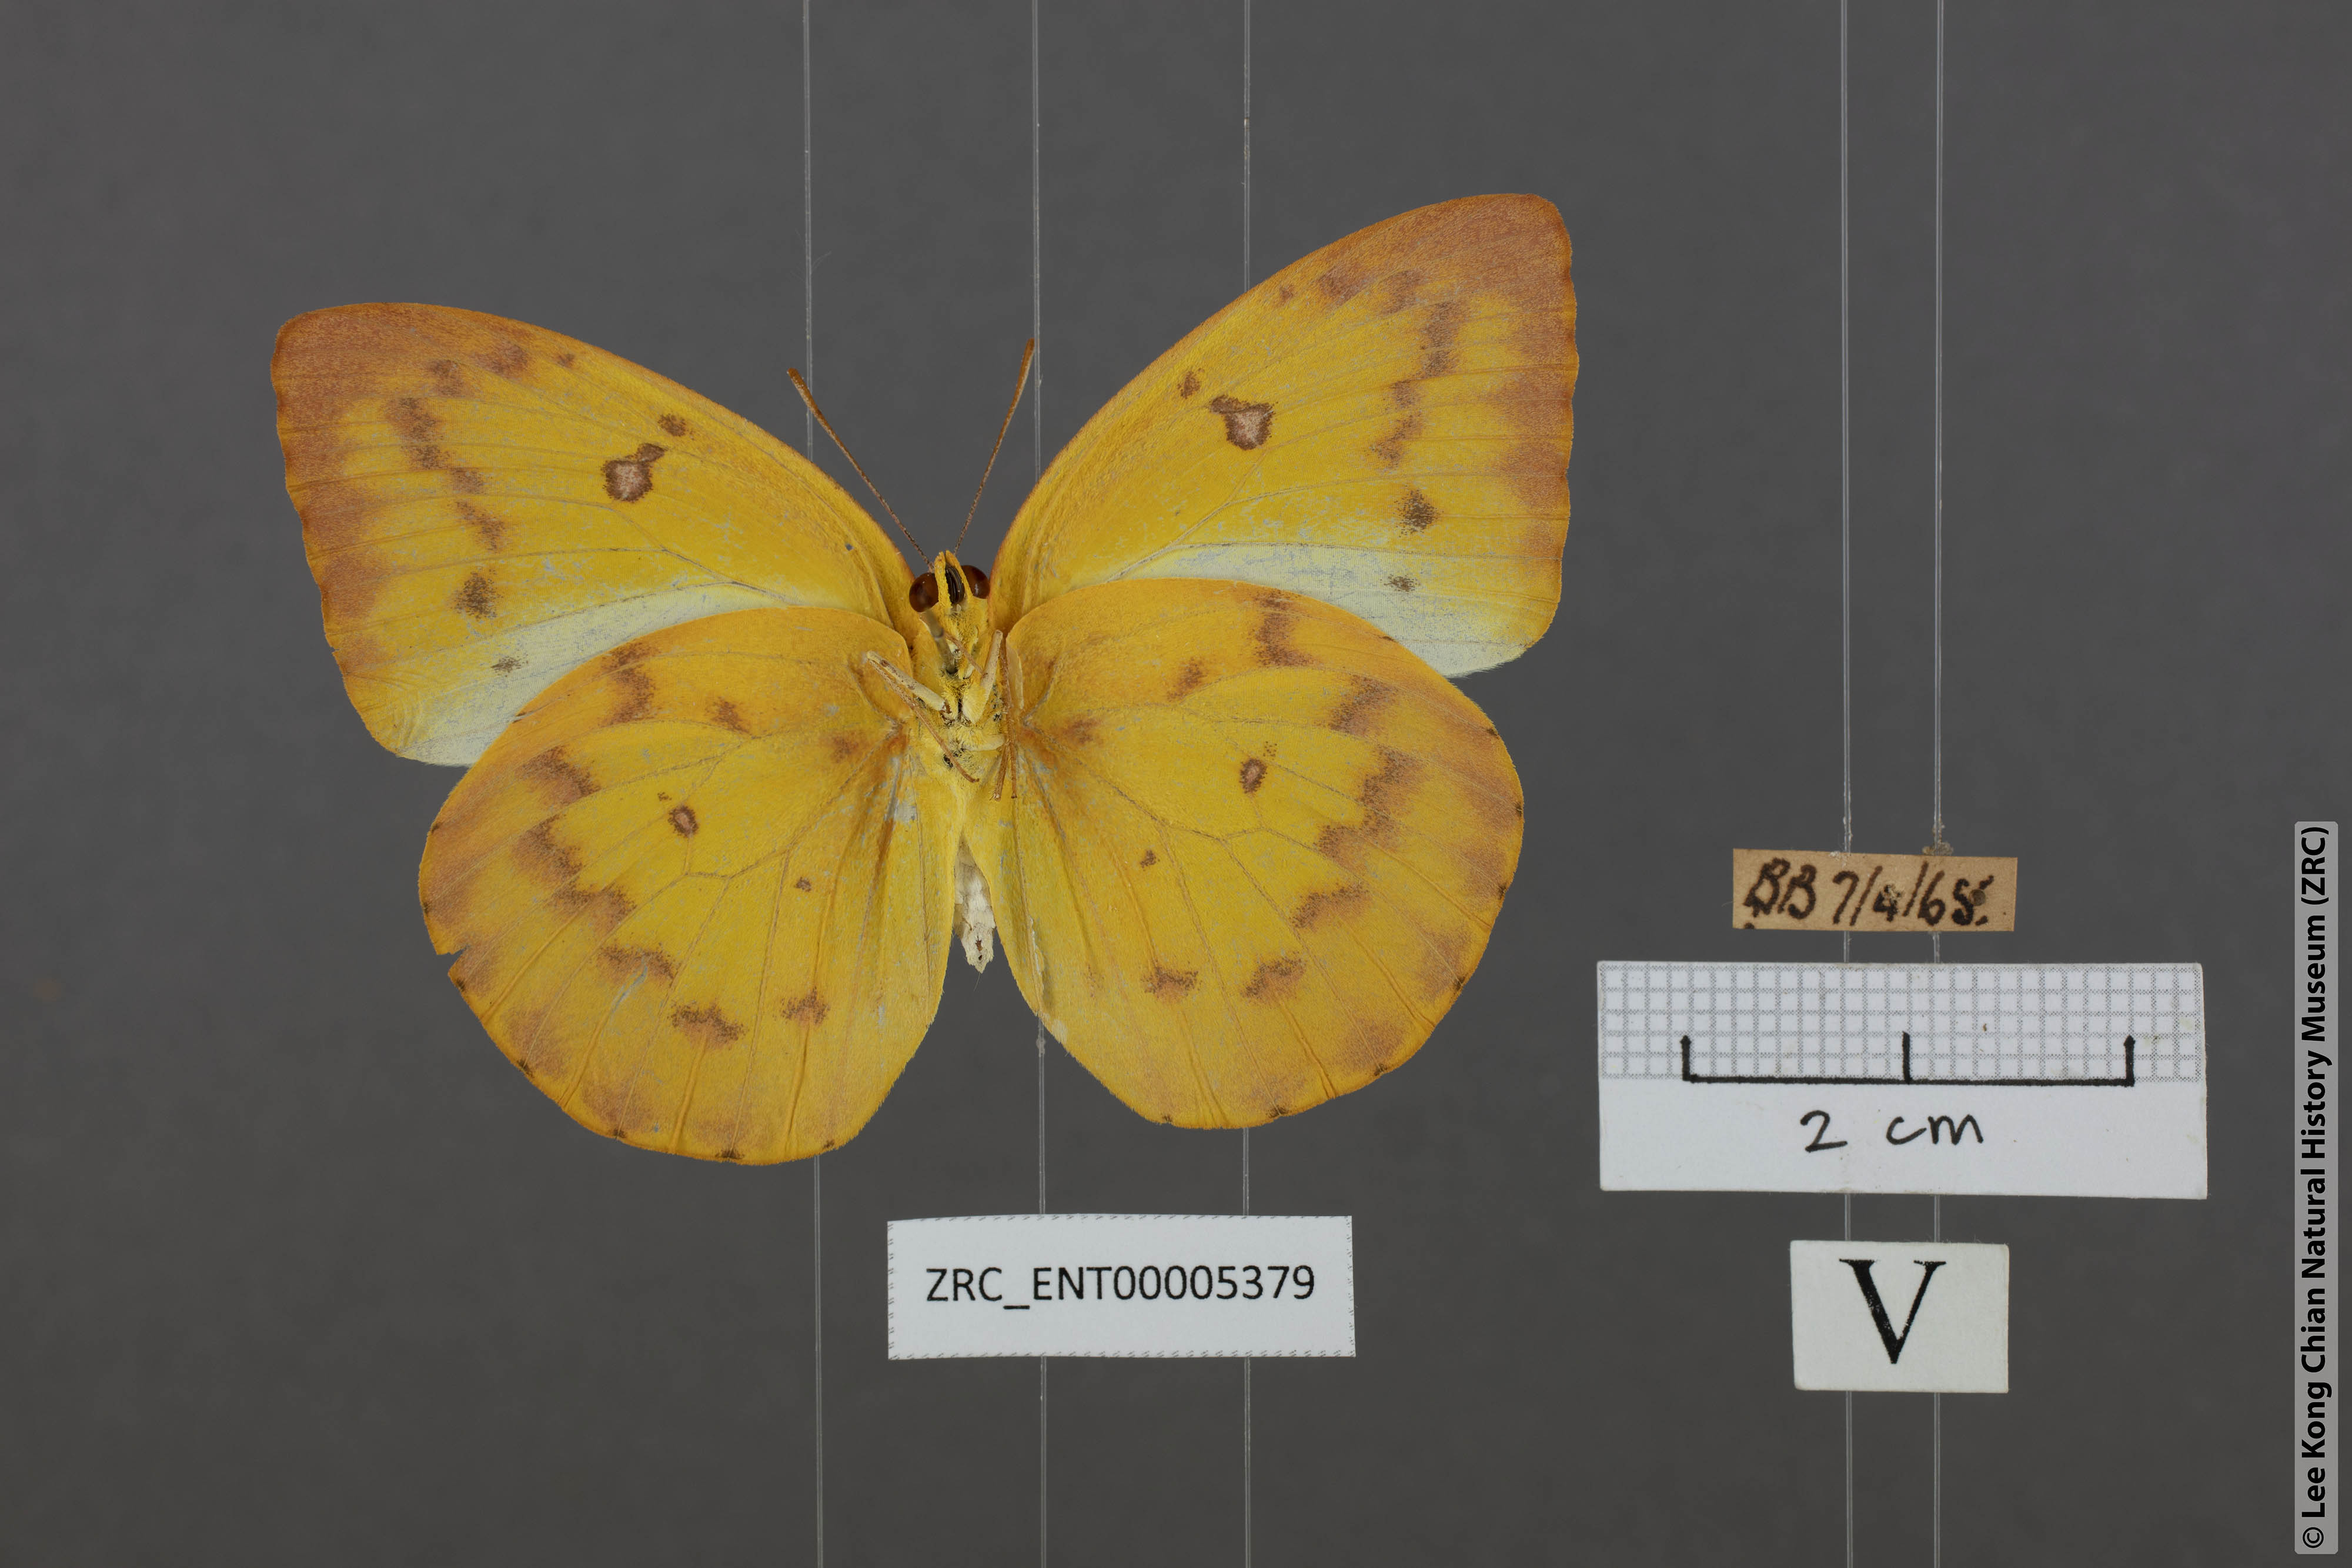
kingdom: Animalia
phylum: Arthropoda
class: Insecta
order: Lepidoptera
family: Pieridae
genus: Catopsilia
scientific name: Catopsilia scylla
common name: Orange emigrant
